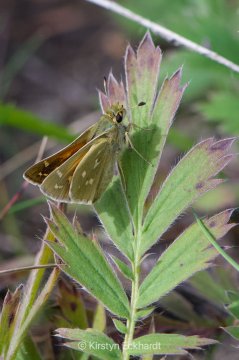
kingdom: Animalia
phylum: Arthropoda
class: Insecta
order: Lepidoptera
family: Hesperiidae
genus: Hesperia
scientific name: Hesperia comma
